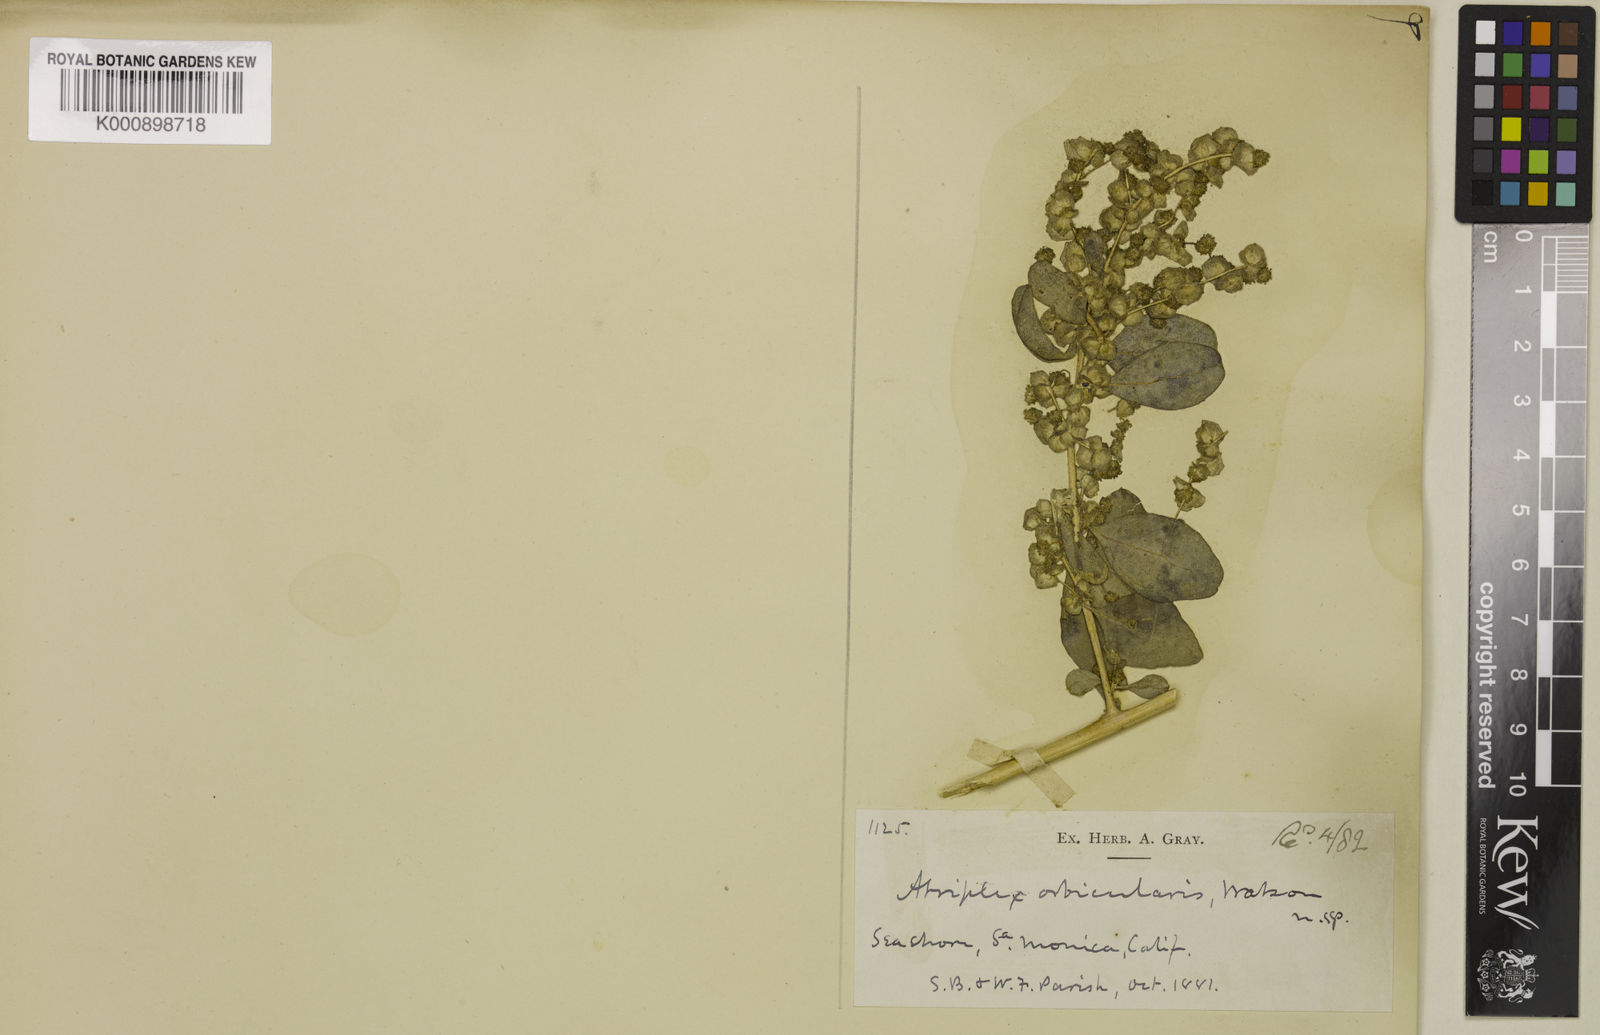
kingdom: Plantae
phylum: Tracheophyta
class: Magnoliopsida
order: Caryophyllales
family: Amaranthaceae
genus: Atriplex
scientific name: Atriplex lentiformis
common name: Big saltbush
